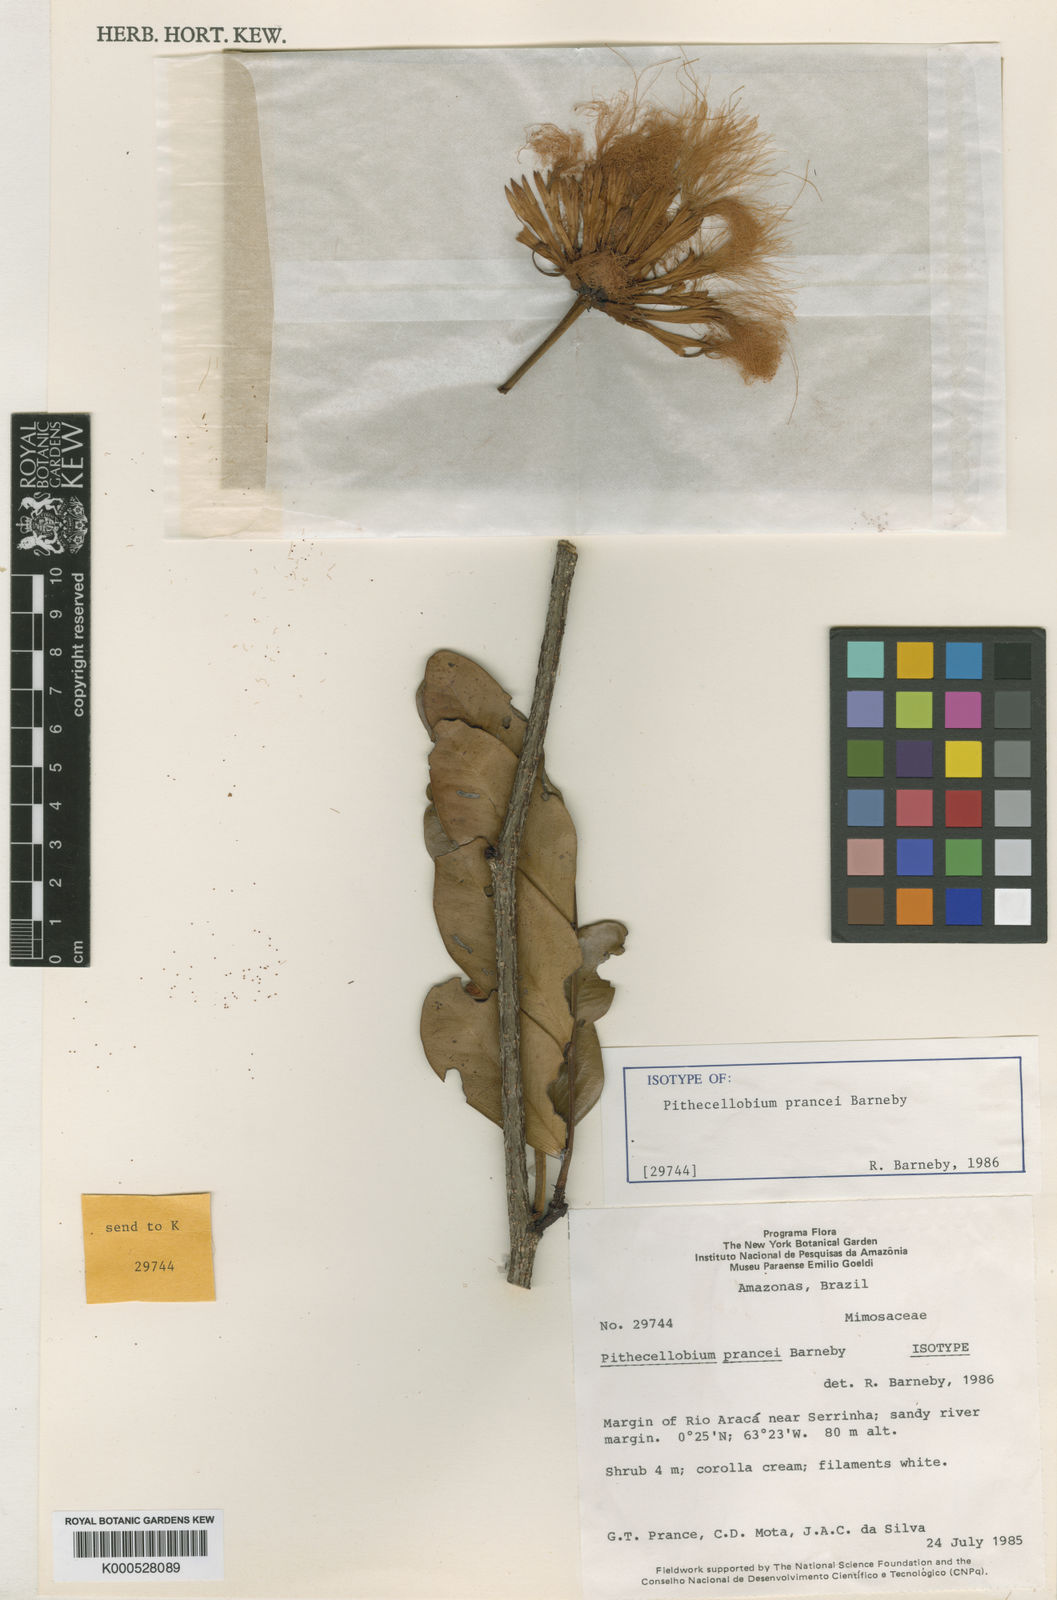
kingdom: Plantae
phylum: Tracheophyta
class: Magnoliopsida
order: Fabales
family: Fabaceae
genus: Macrosamanea
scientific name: Macrosamanea prancei
